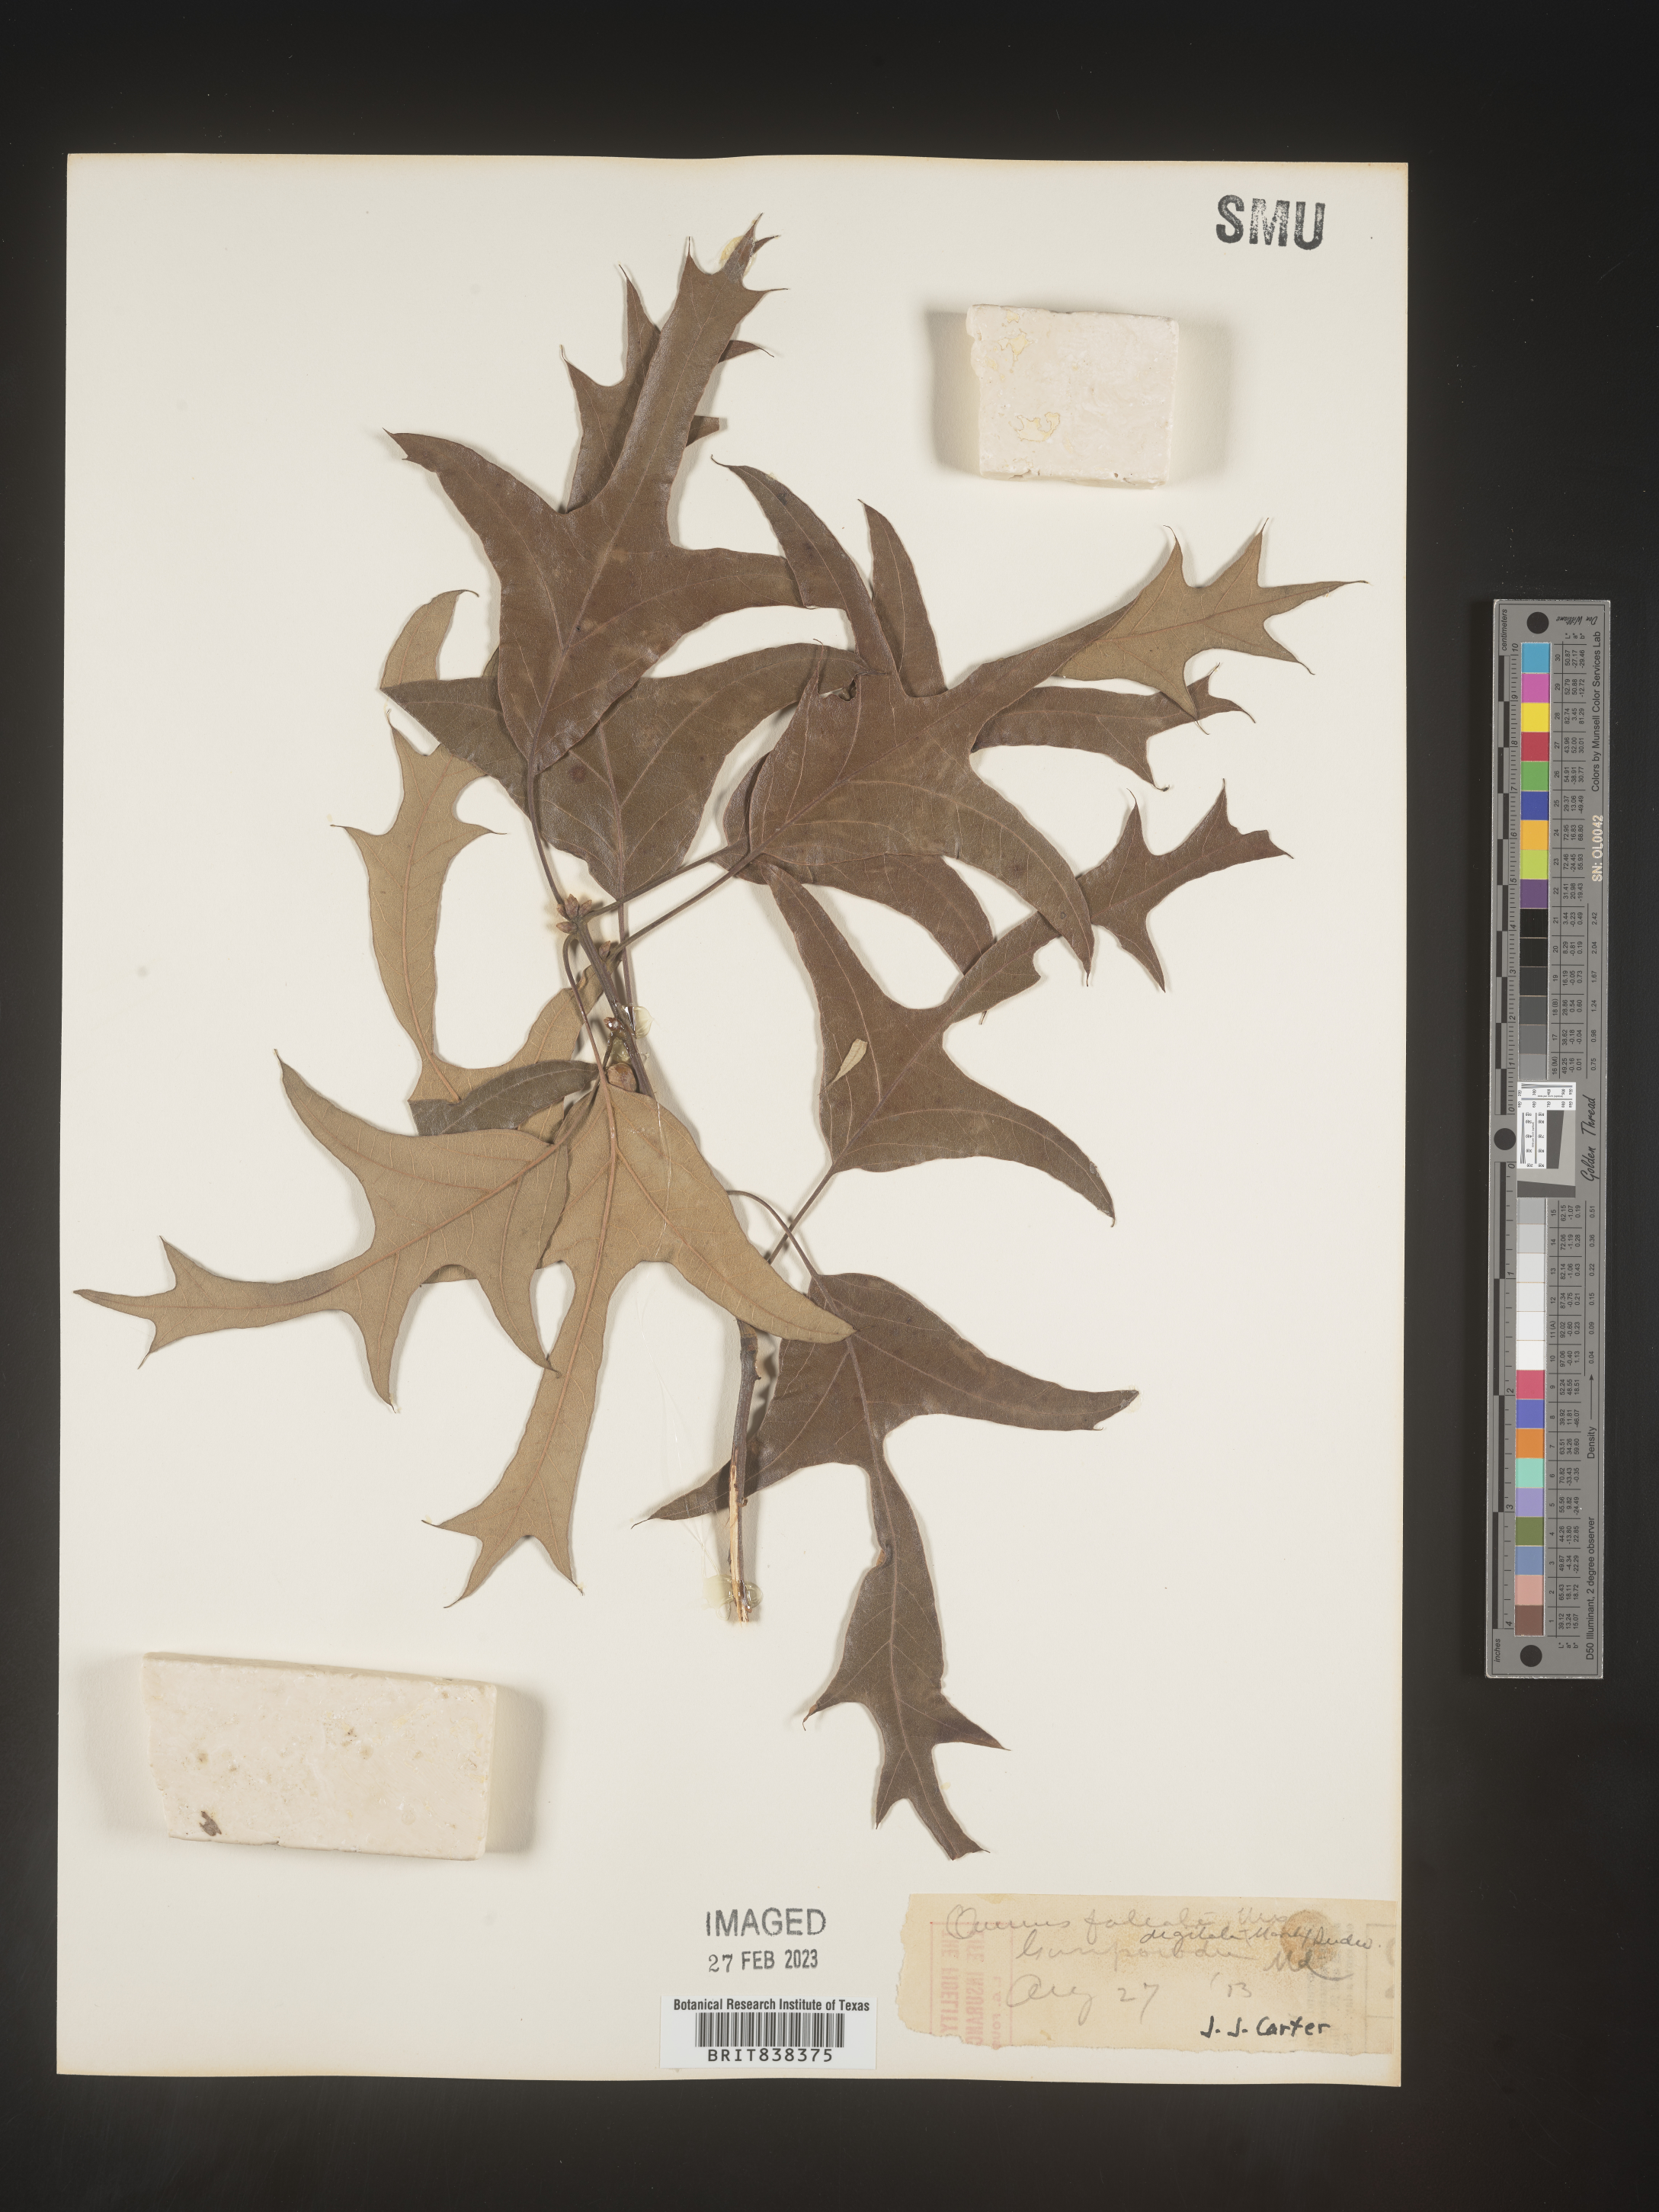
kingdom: Plantae
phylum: Tracheophyta
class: Magnoliopsida
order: Fagales
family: Fagaceae
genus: Quercus
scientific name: Quercus falcata
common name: Southern red oak
